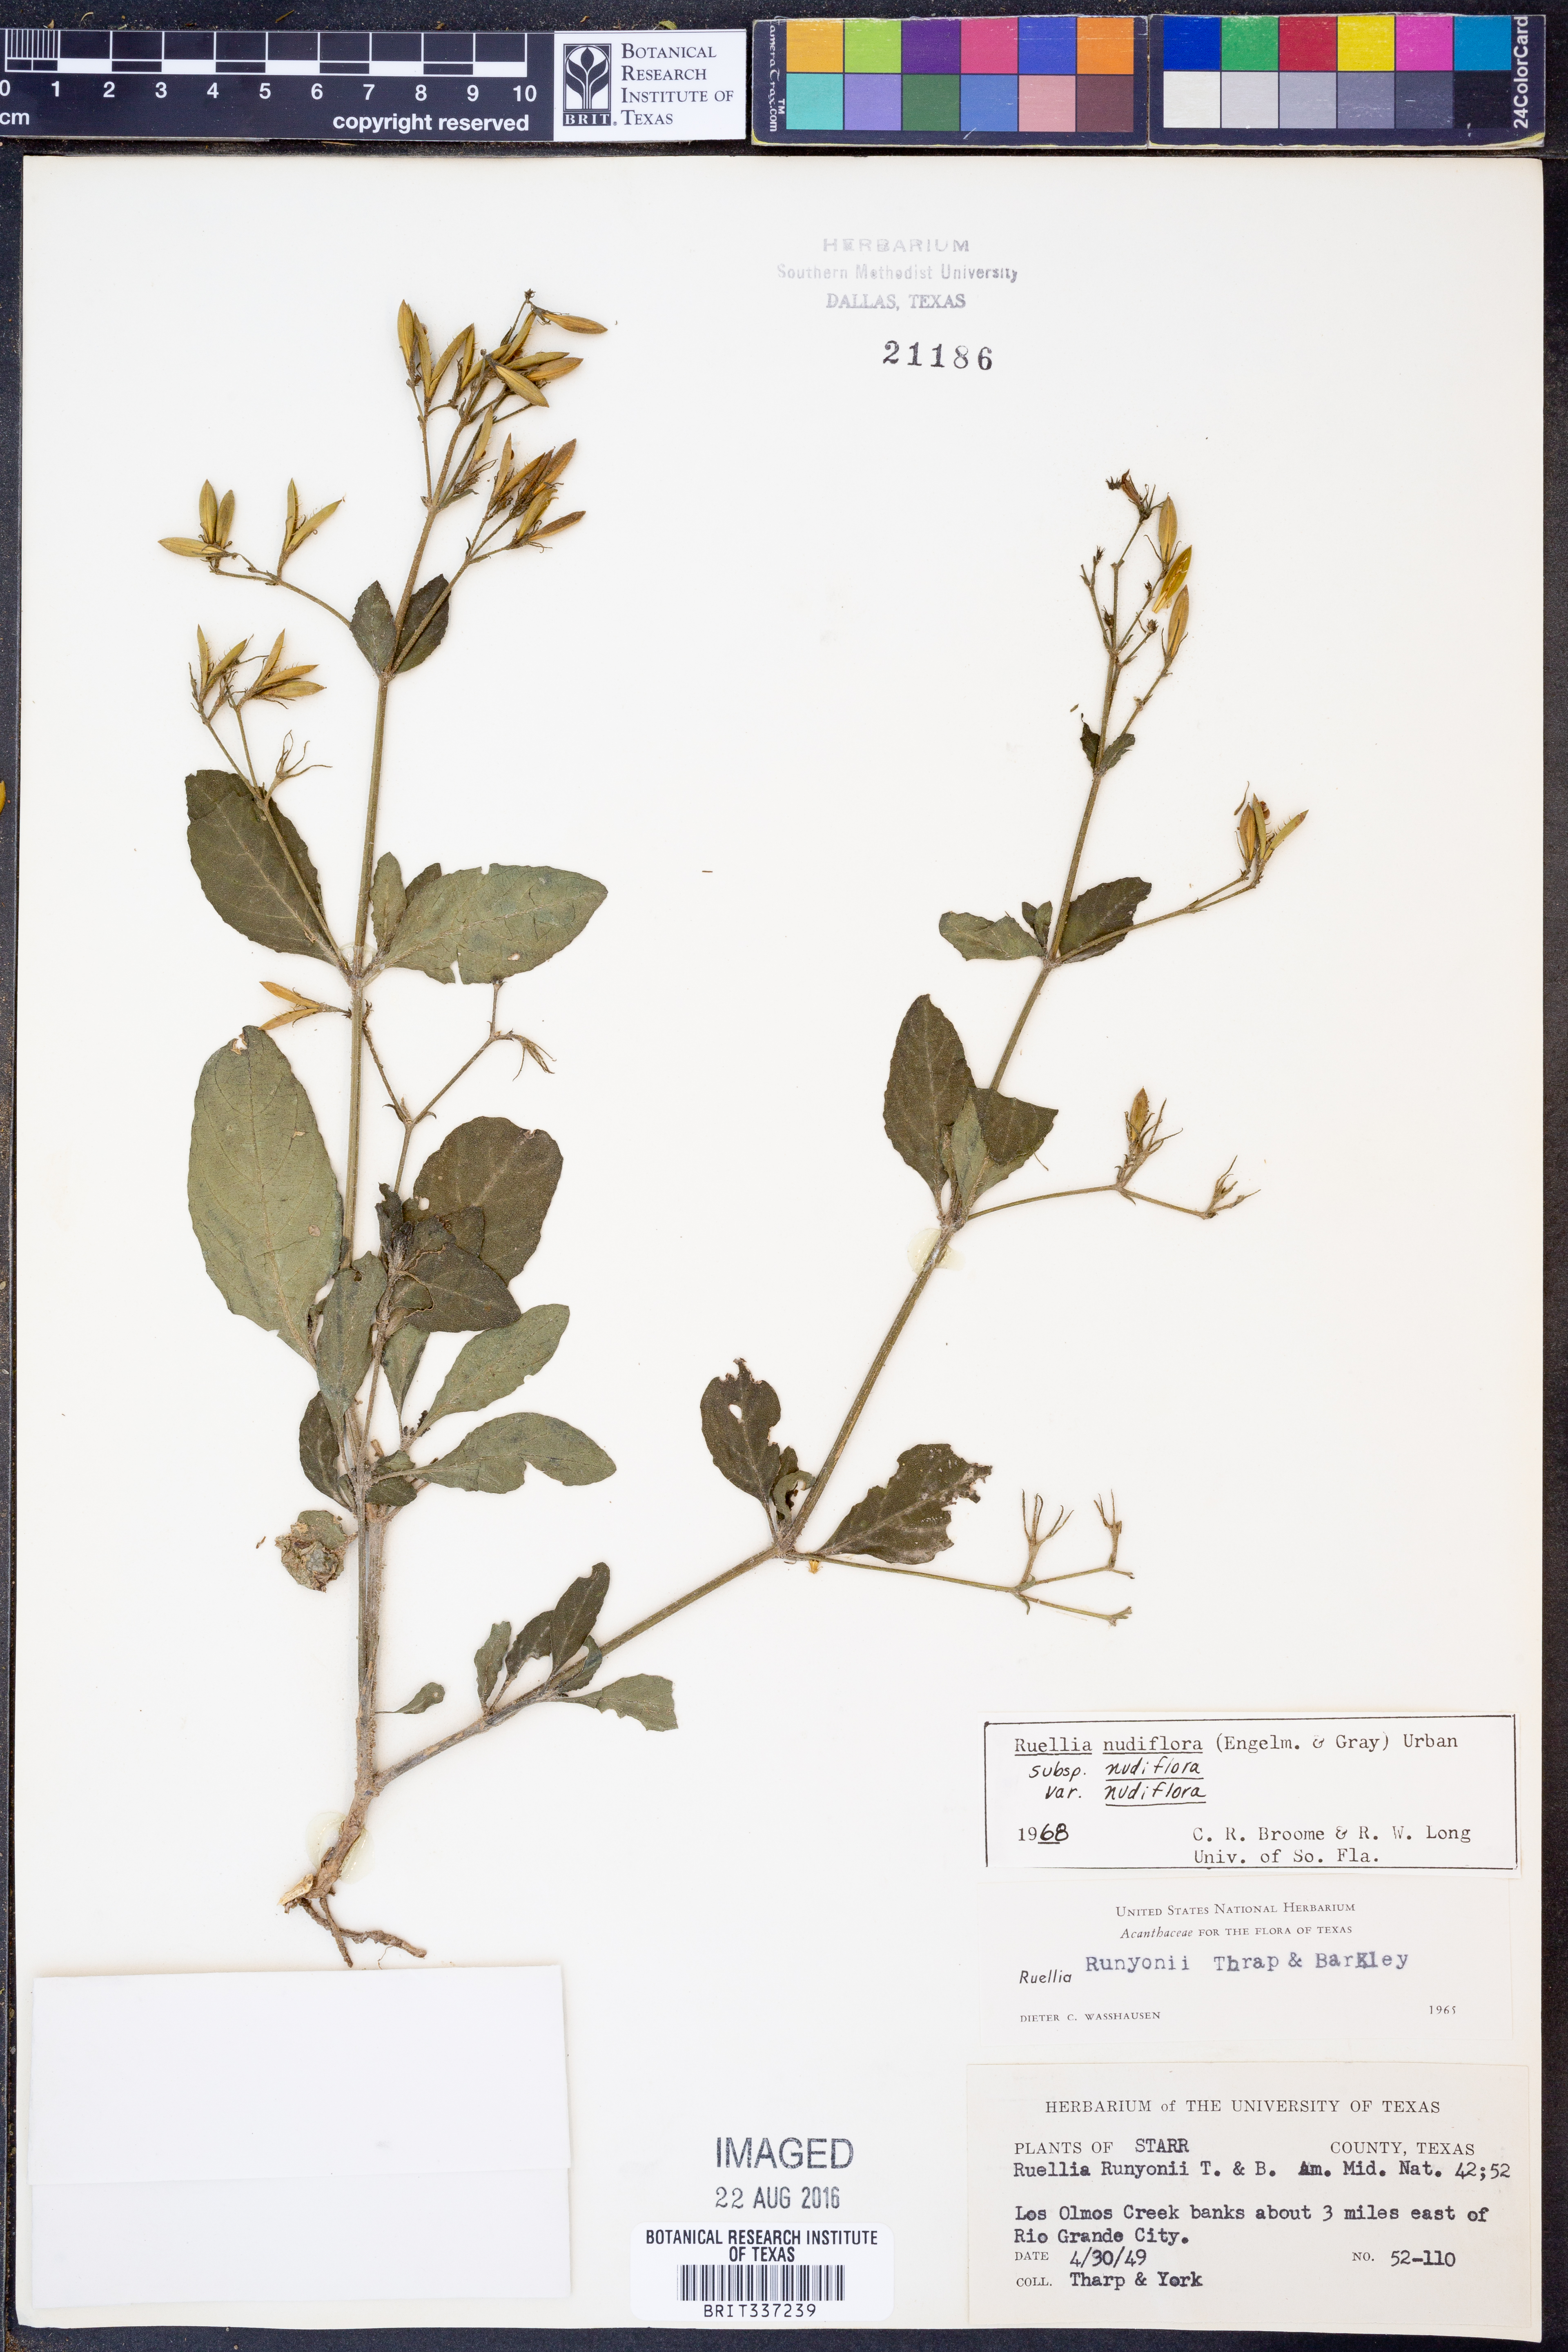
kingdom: Plantae
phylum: Tracheophyta
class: Magnoliopsida
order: Lamiales
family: Acanthaceae
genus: Ruellia
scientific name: Ruellia ciliatiflora
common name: Hairyflower wild petunia
